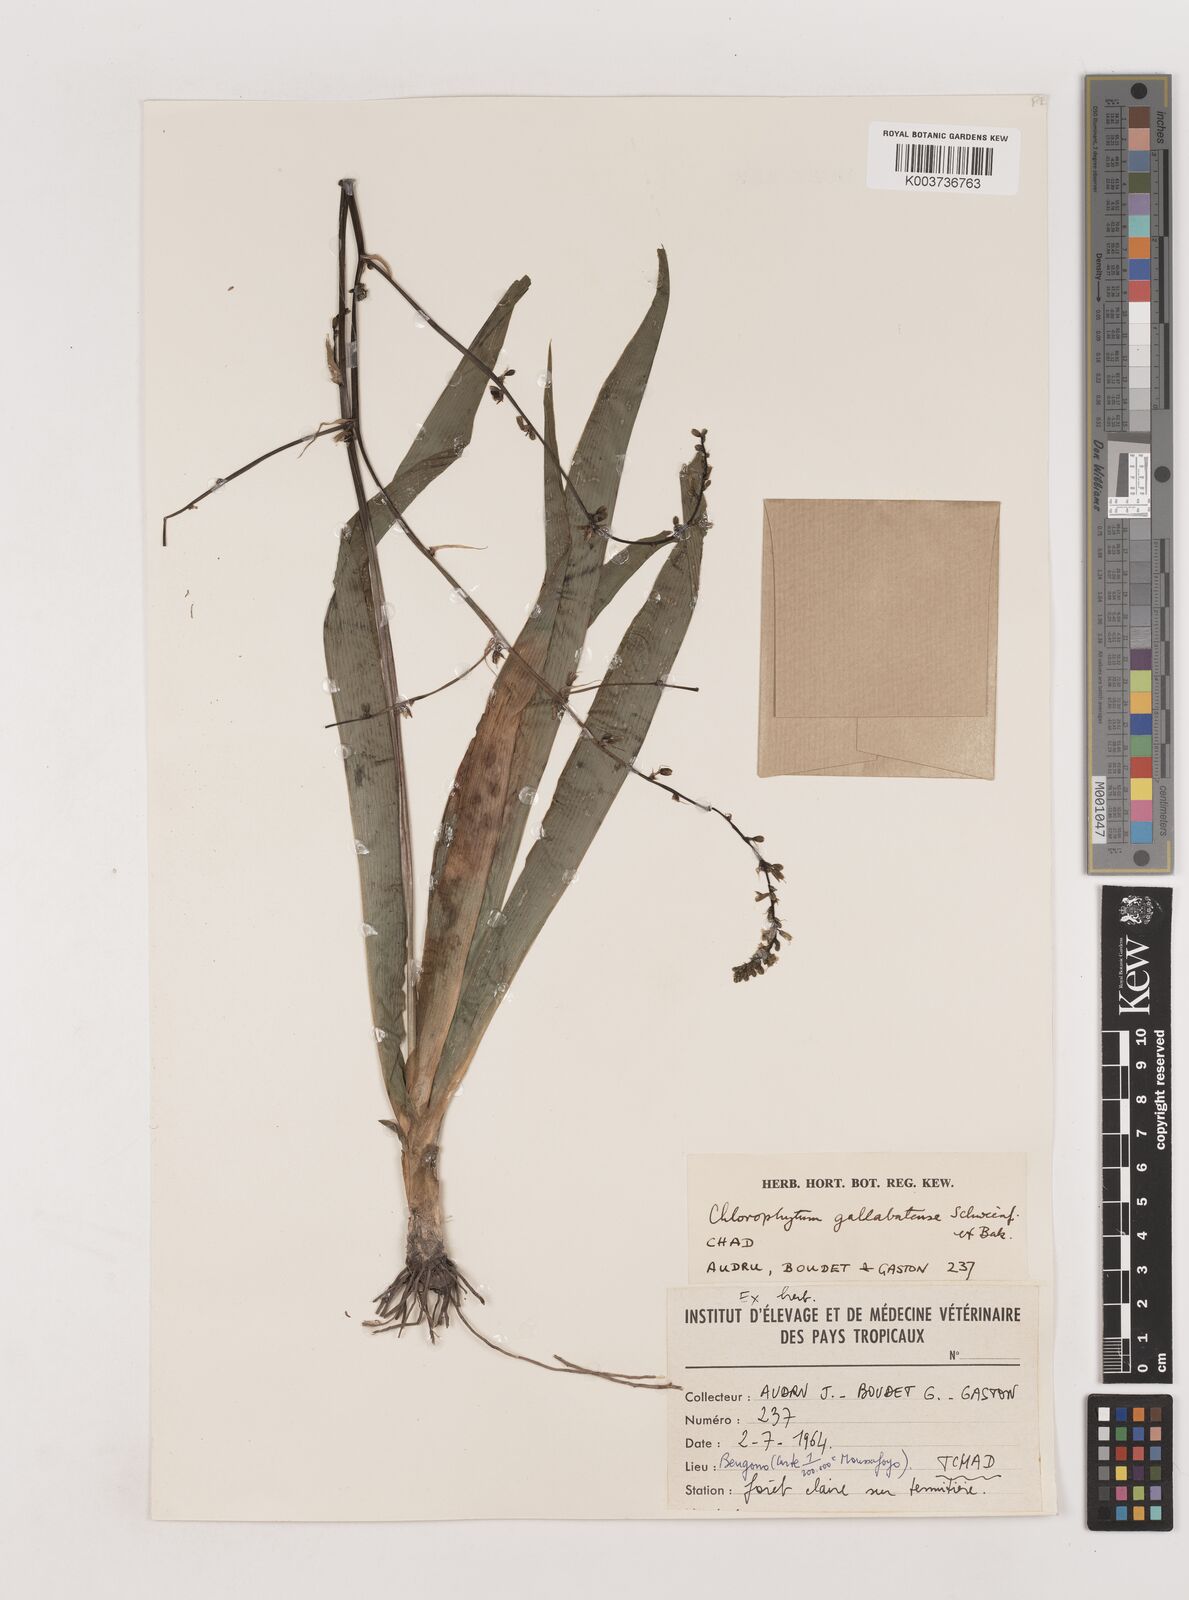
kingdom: Plantae
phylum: Tracheophyta
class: Liliopsida
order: Asparagales
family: Asparagaceae
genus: Chlorophytum
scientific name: Chlorophytum gallabatense
